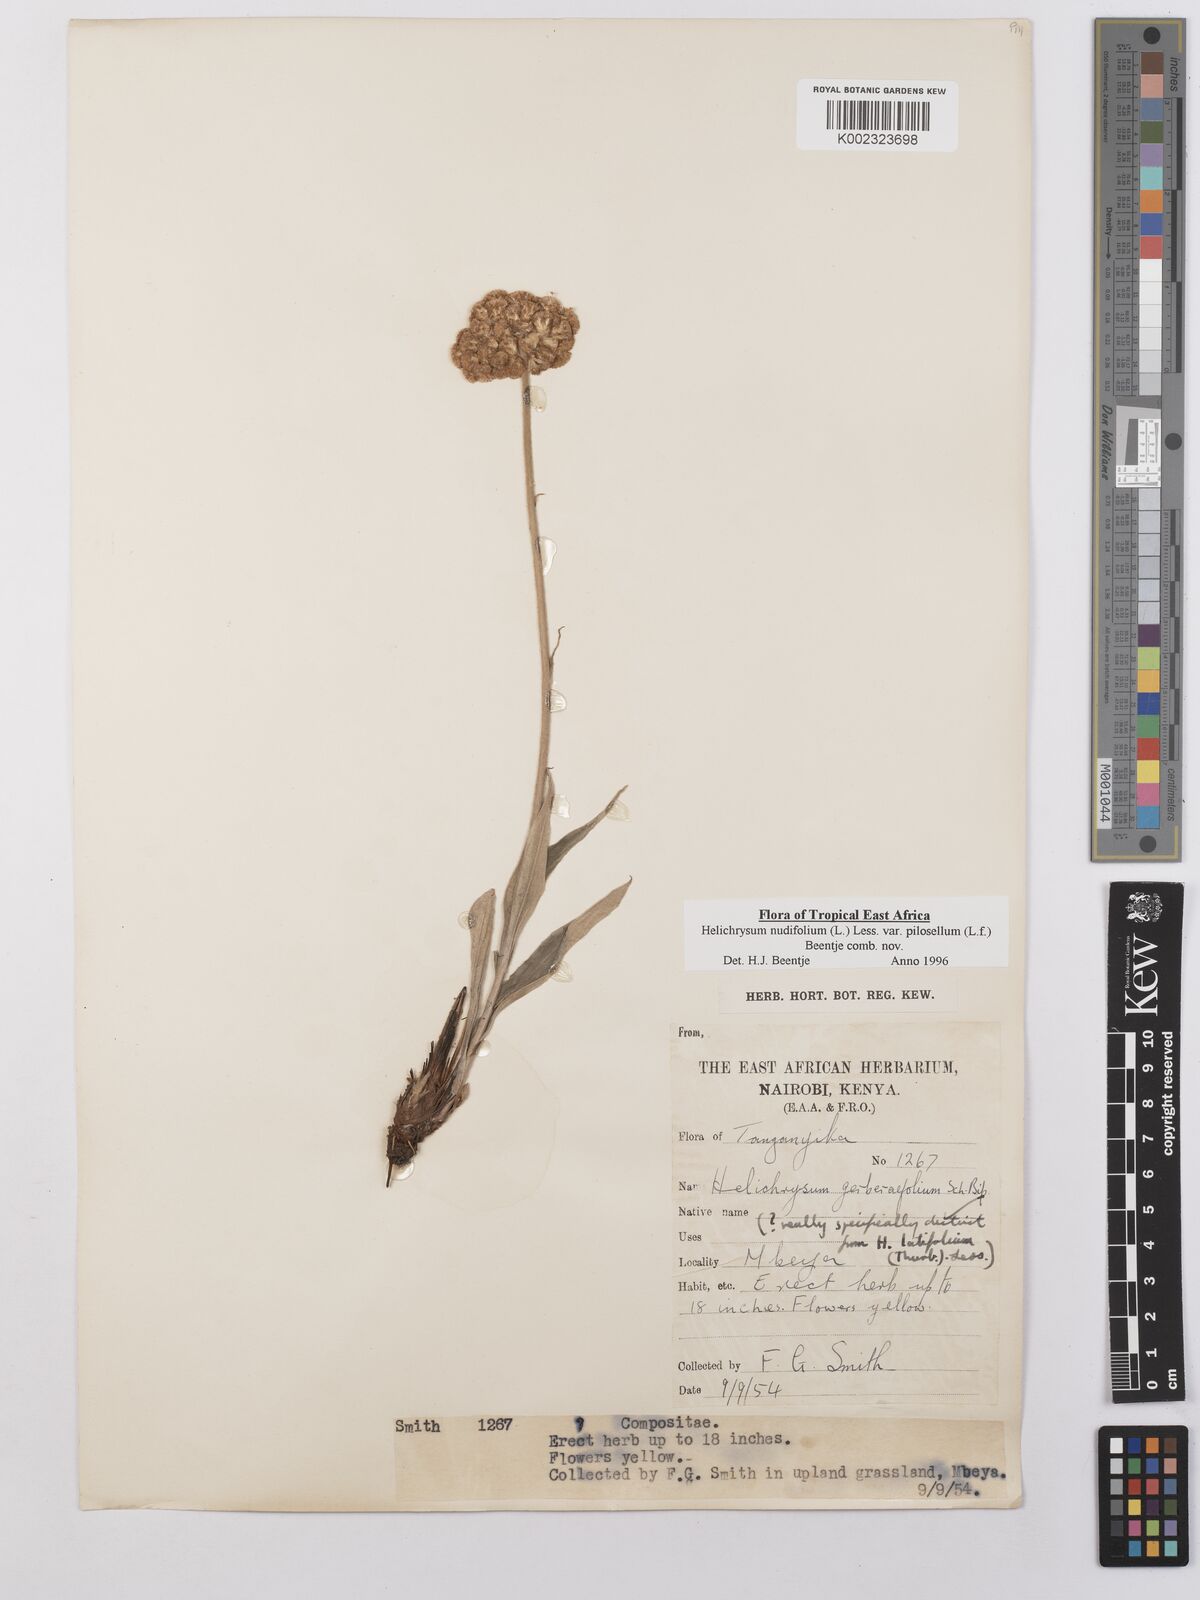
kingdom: Plantae
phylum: Tracheophyta
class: Magnoliopsida
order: Asterales
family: Asteraceae
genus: Helichrysum
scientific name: Helichrysum nudifolium
